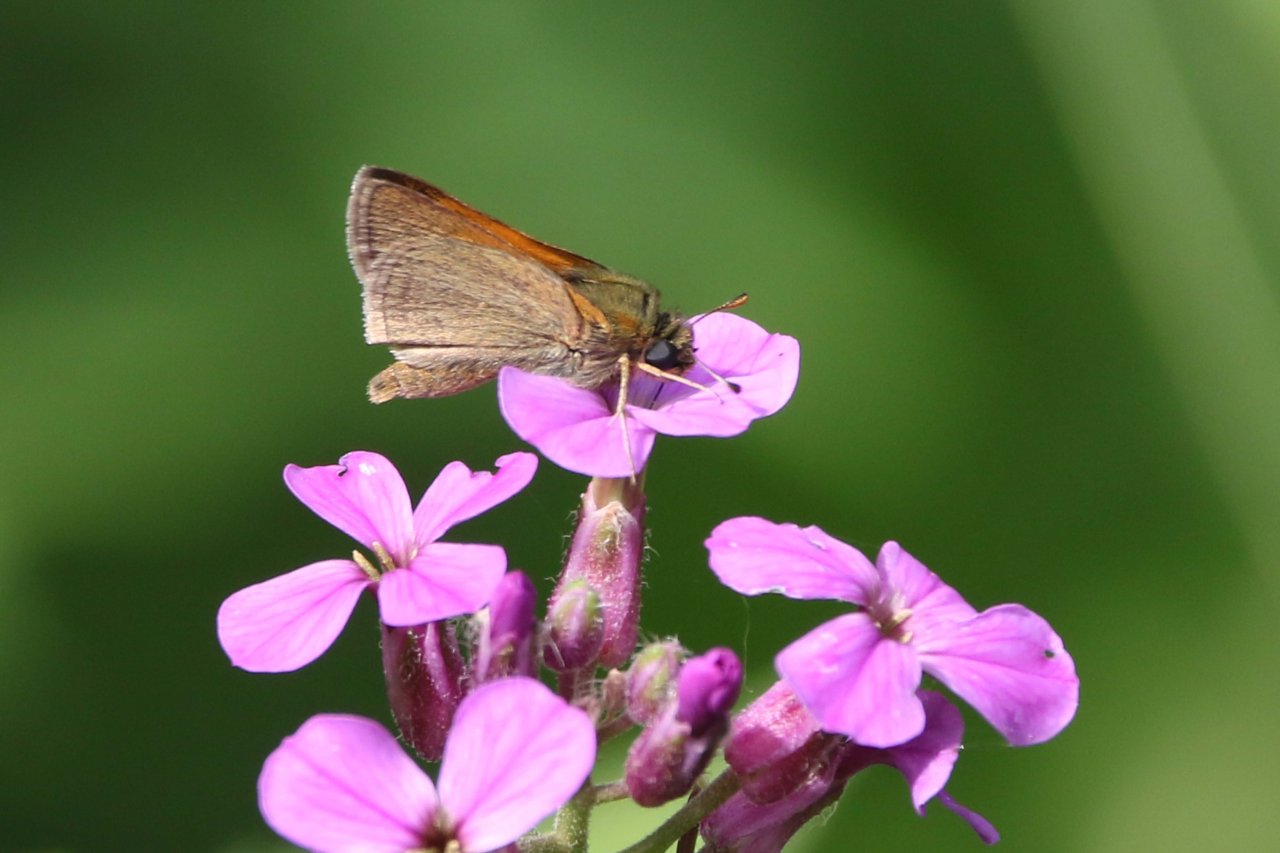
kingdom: Animalia
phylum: Arthropoda
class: Insecta
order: Lepidoptera
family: Hesperiidae
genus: Polites
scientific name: Polites themistocles
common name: Tawny-edged Skipper
